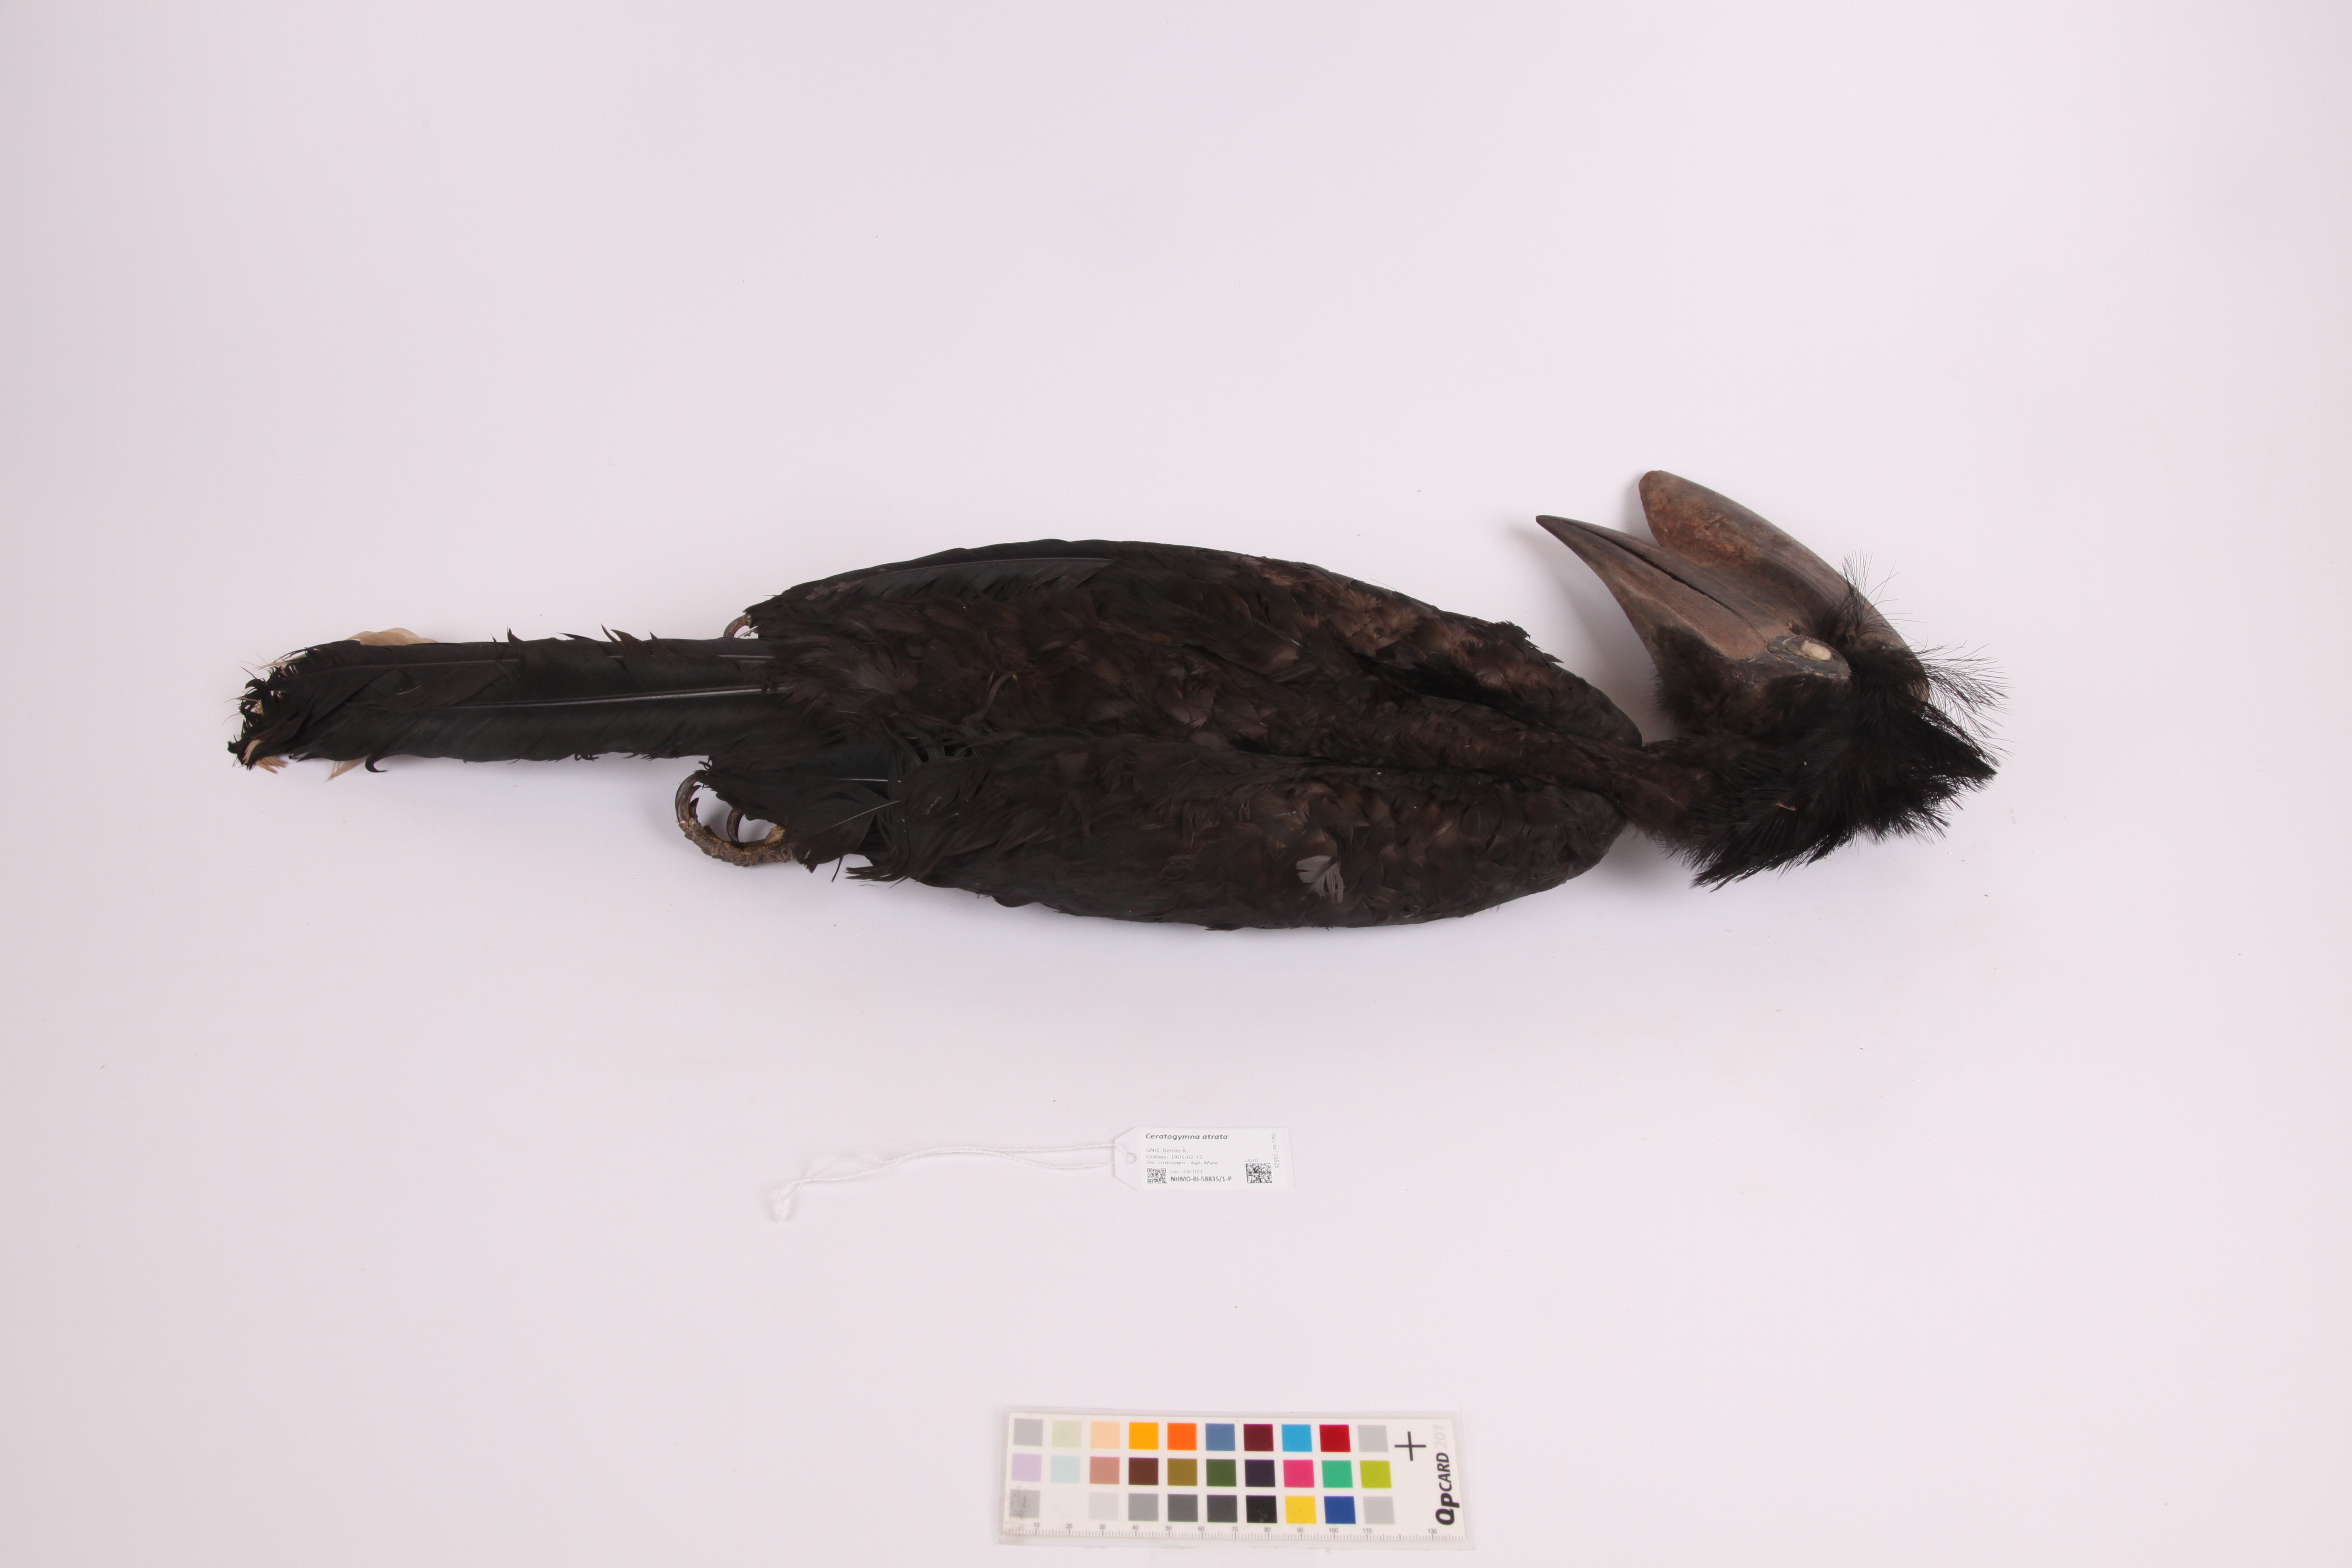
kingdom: Animalia
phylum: Chordata
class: Aves
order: Bucerotiformes
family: Bucerotidae
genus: Ceratogymna
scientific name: Ceratogymna atrata
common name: Black-casqued hornbill
